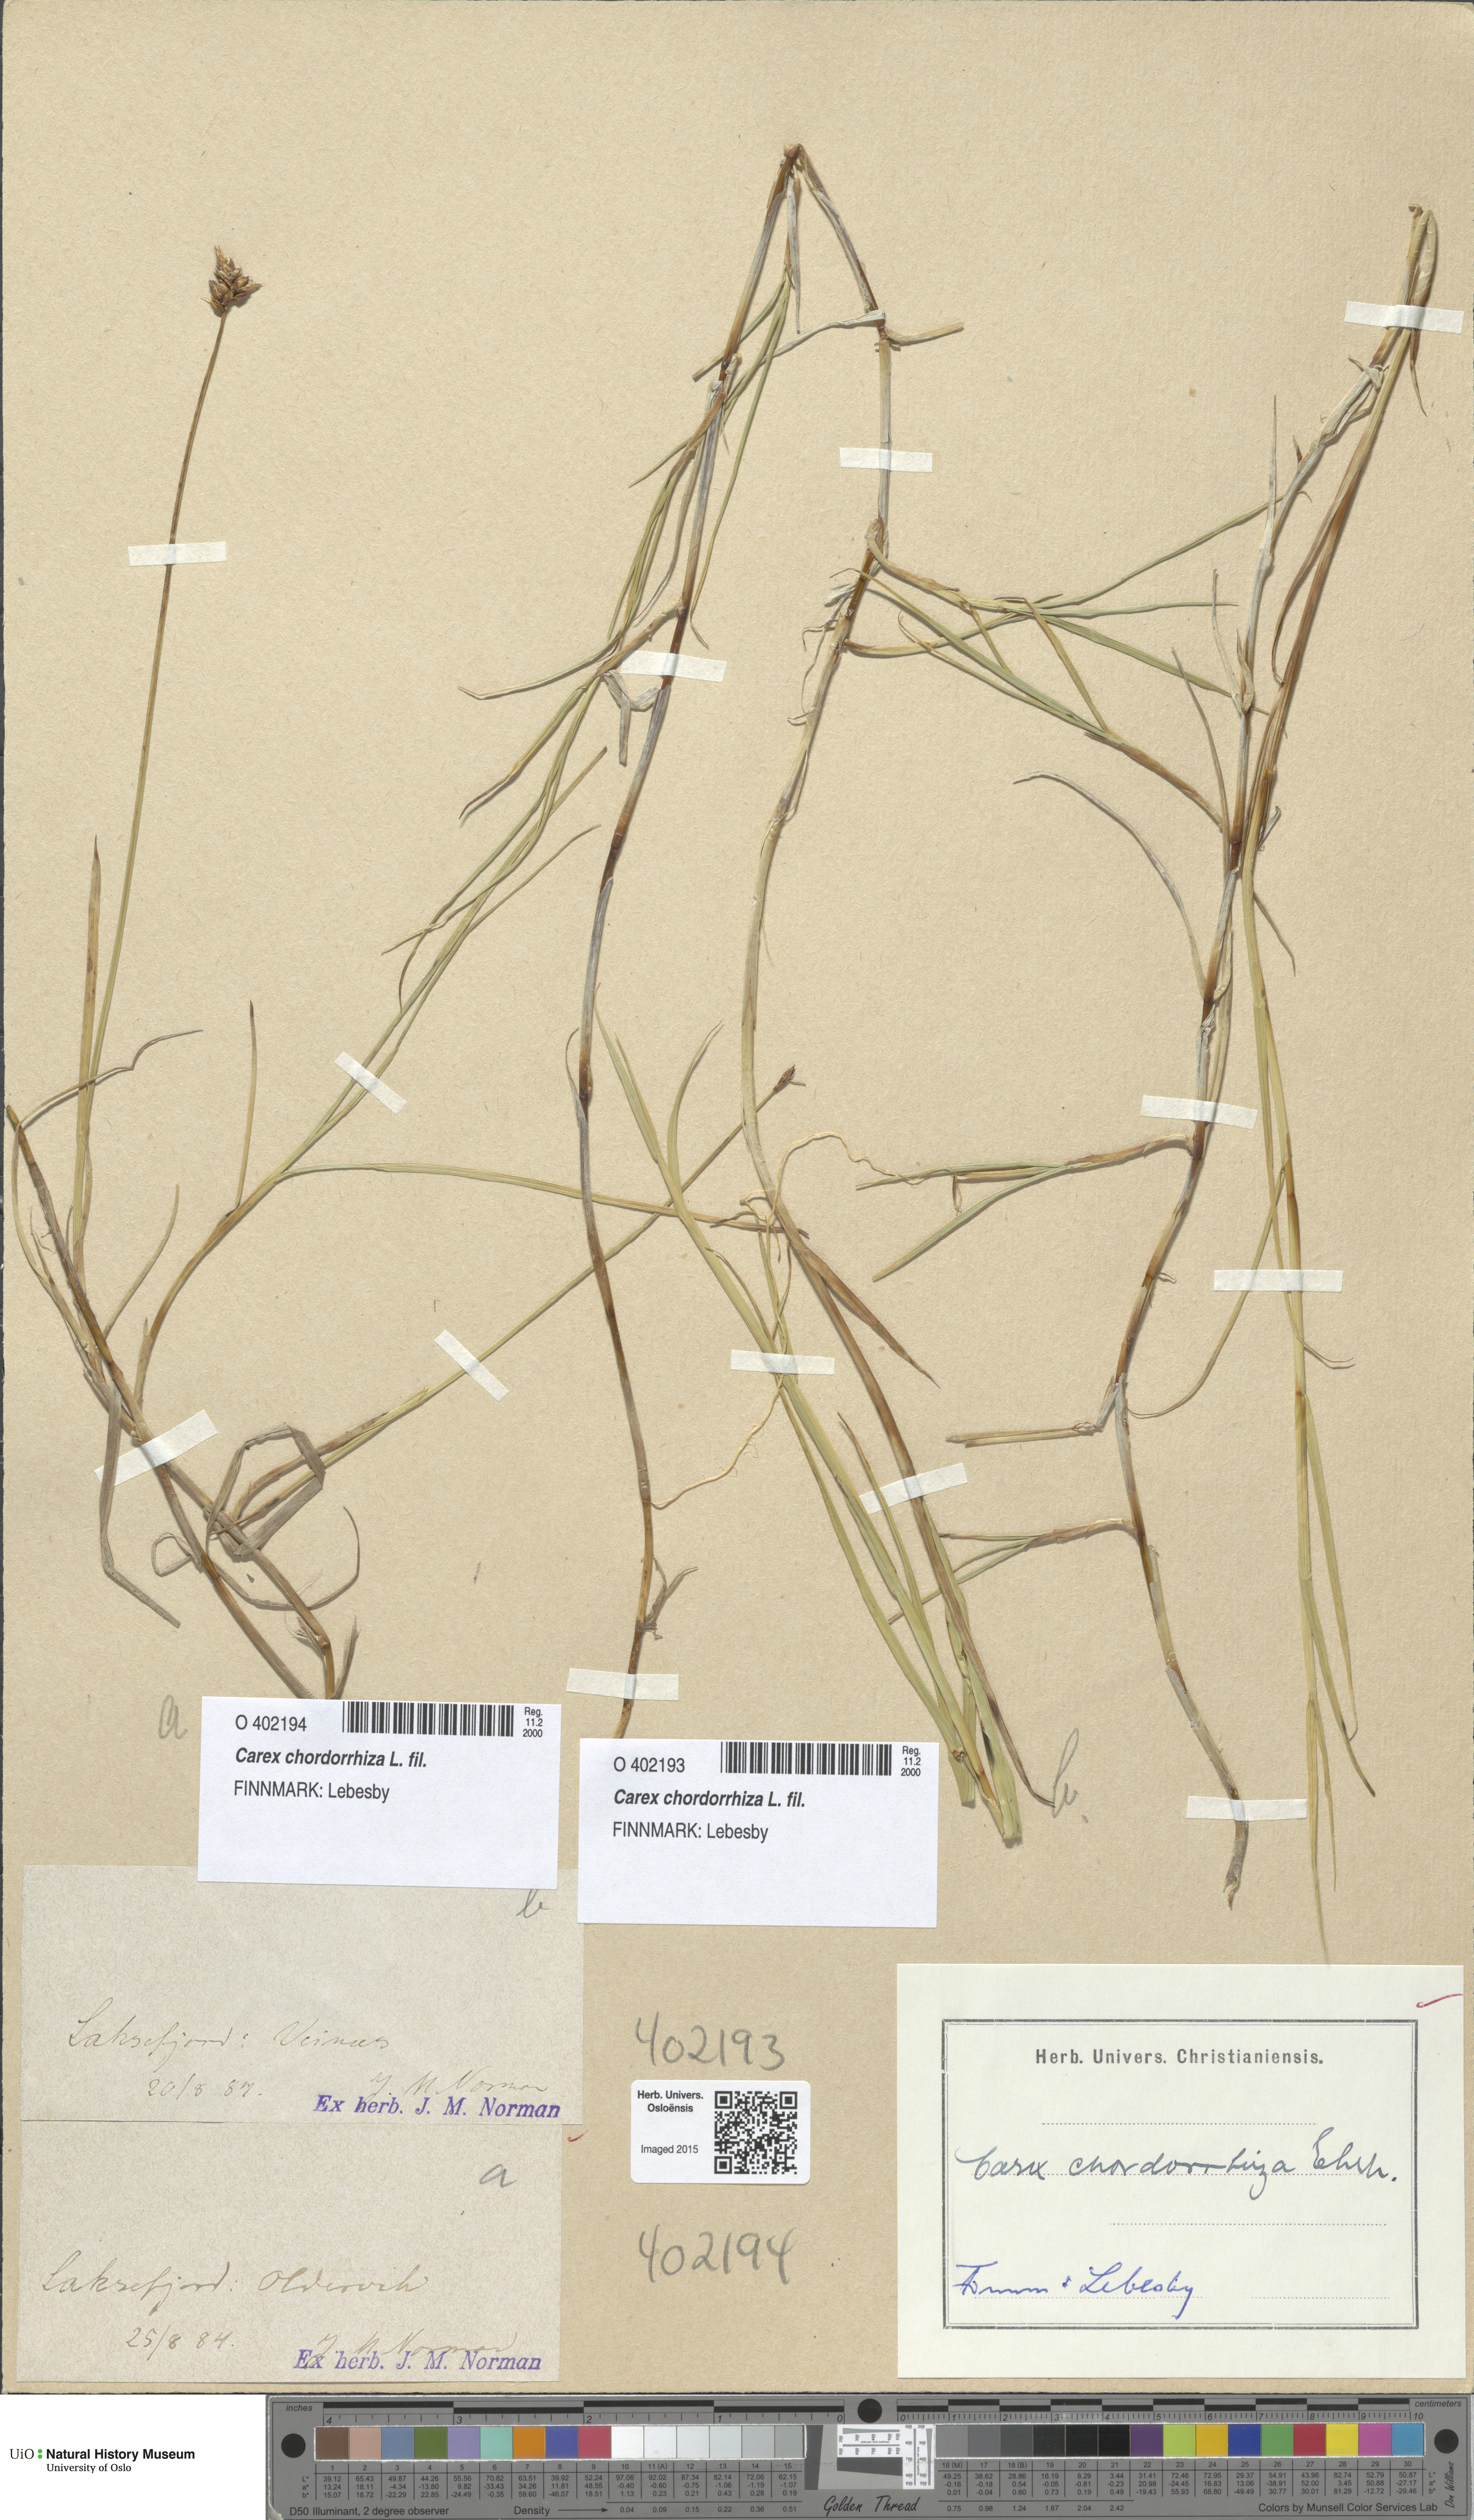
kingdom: Plantae
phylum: Tracheophyta
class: Liliopsida
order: Poales
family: Cyperaceae
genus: Carex
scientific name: Carex chordorrhiza
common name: String sedge
